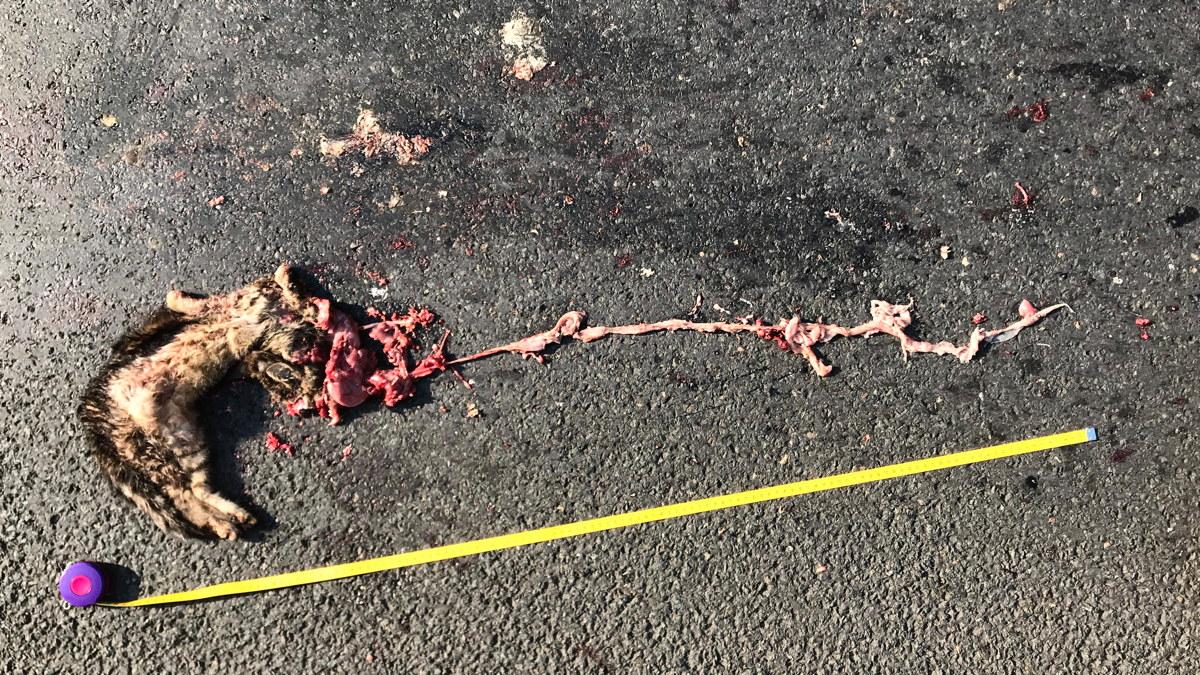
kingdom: Animalia
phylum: Chordata
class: Mammalia
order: Carnivora
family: Felidae
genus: Felis
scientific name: Felis catus
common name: Domestic cat
